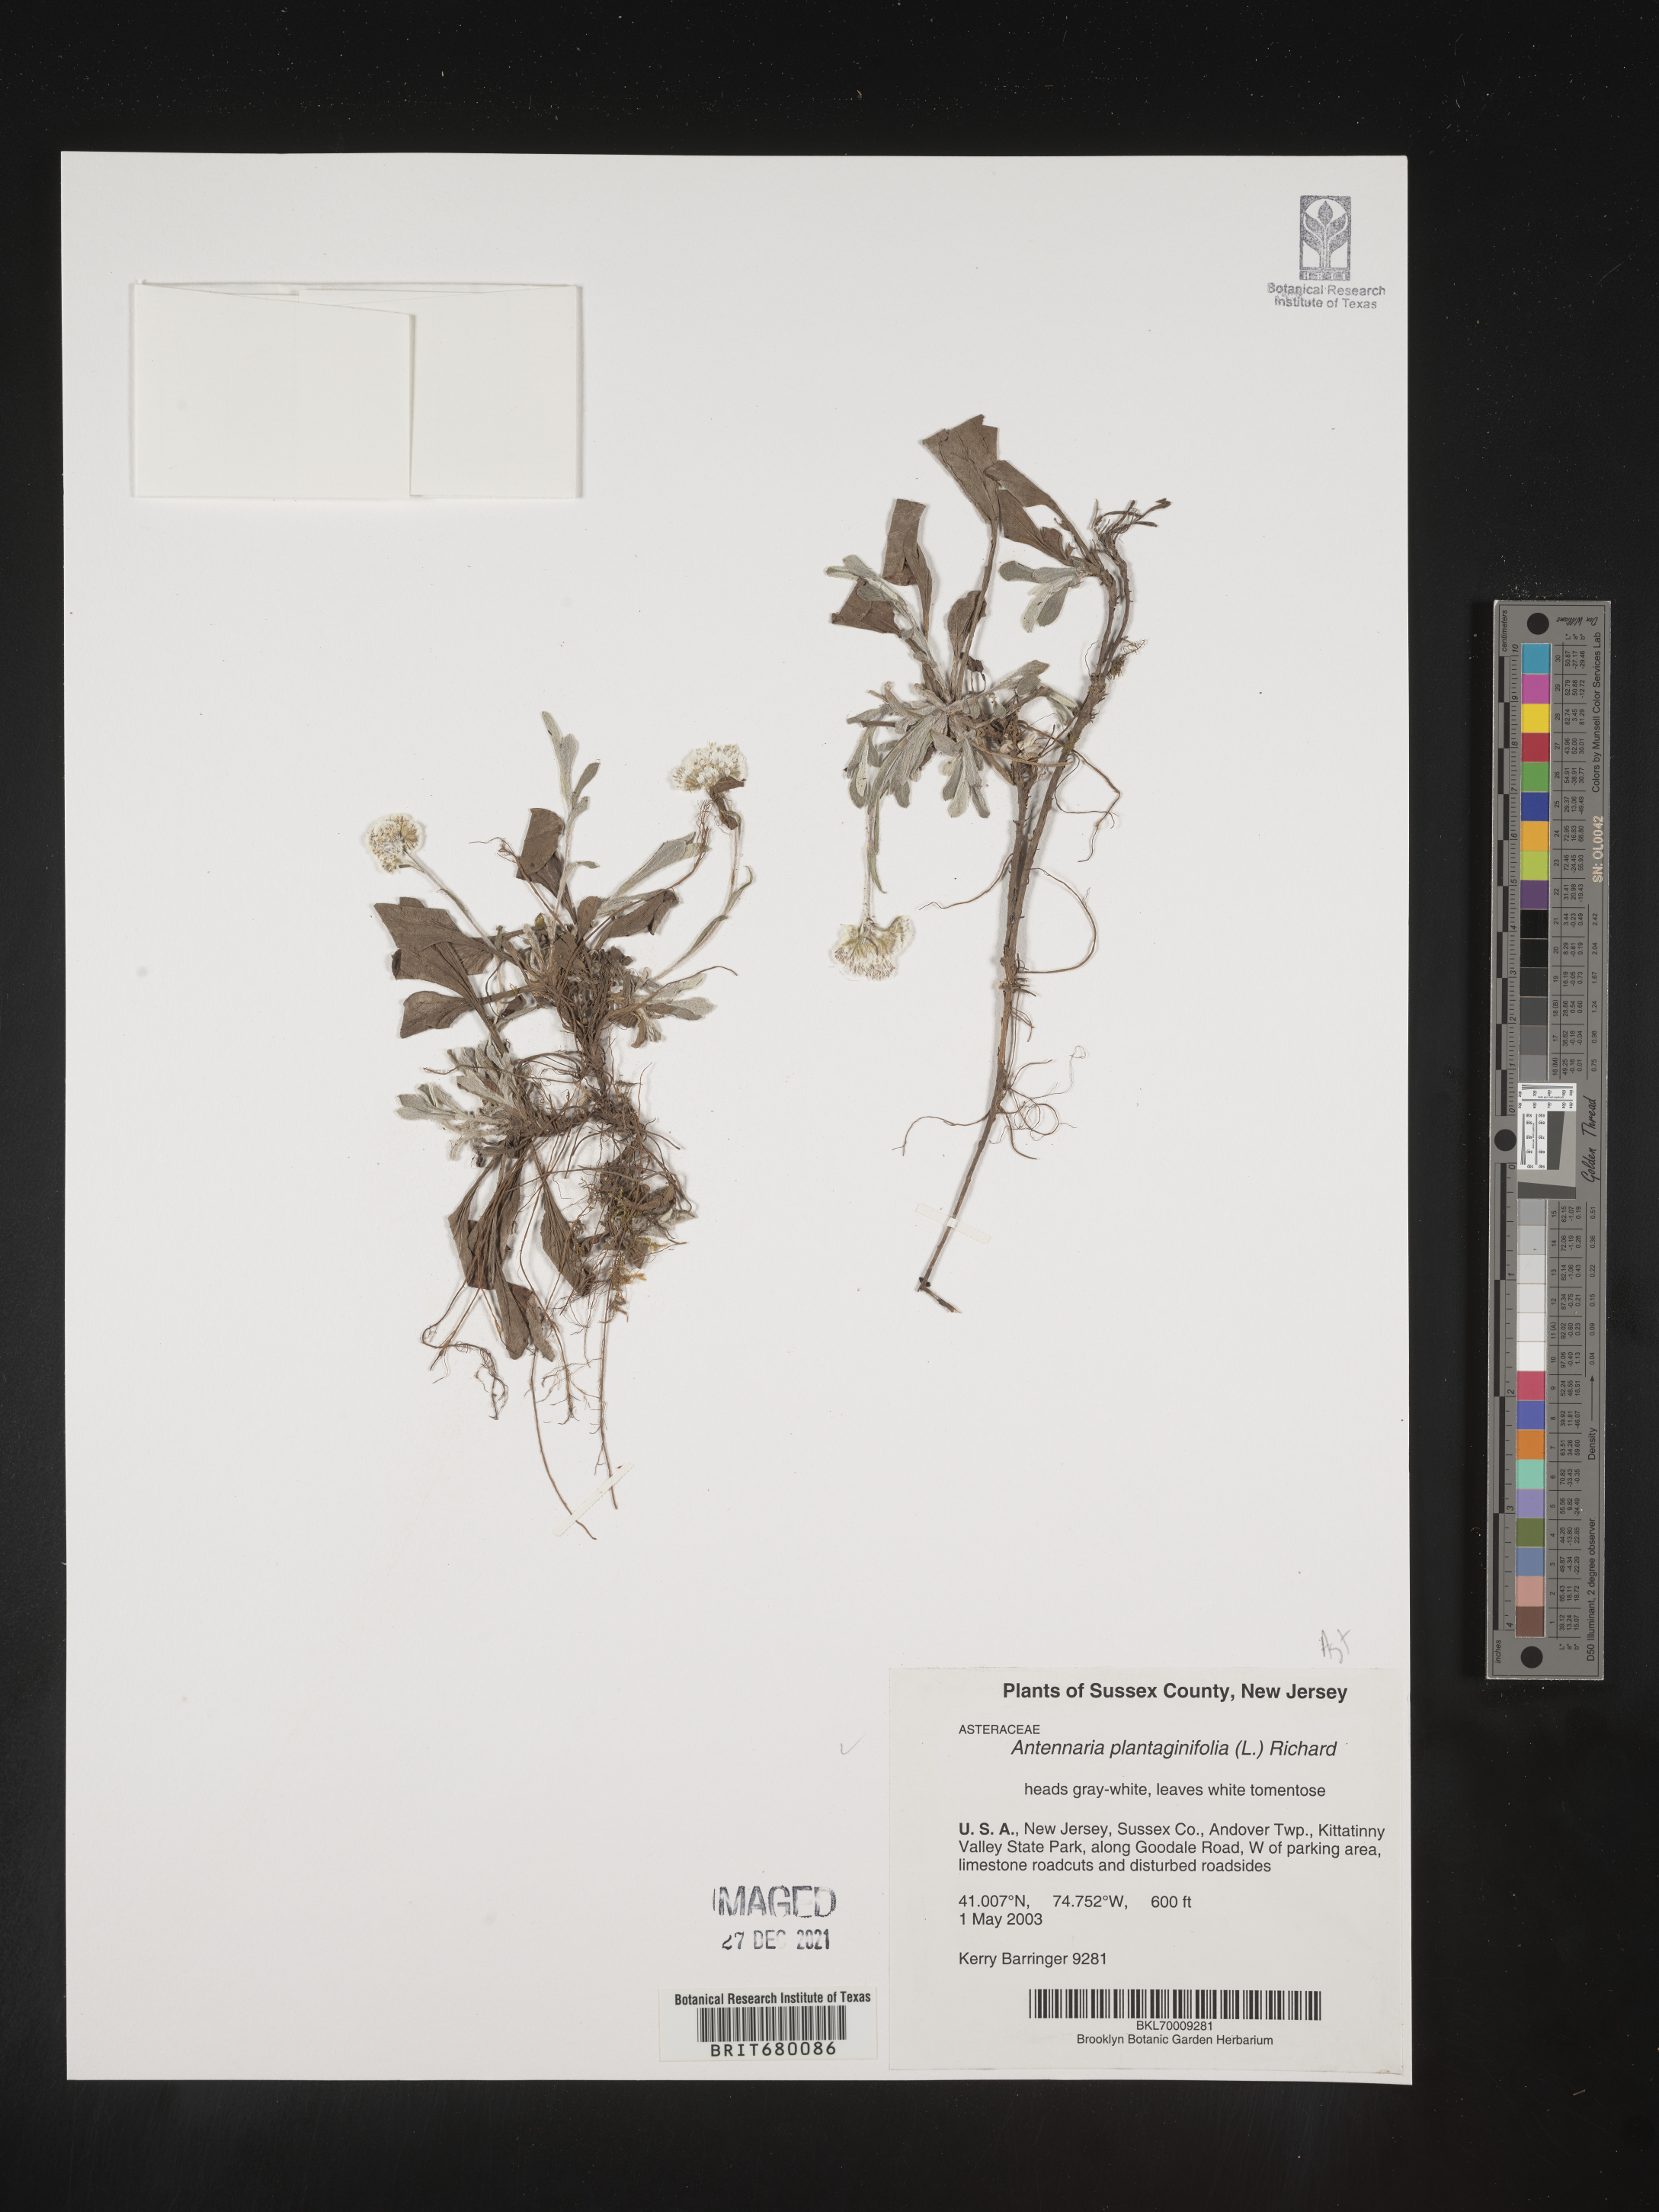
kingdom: Plantae
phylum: Tracheophyta
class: Magnoliopsida
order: Asterales
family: Asteraceae
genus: Antennaria
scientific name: Antennaria plantaginifolia
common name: Plantain-leaved pussytoes
